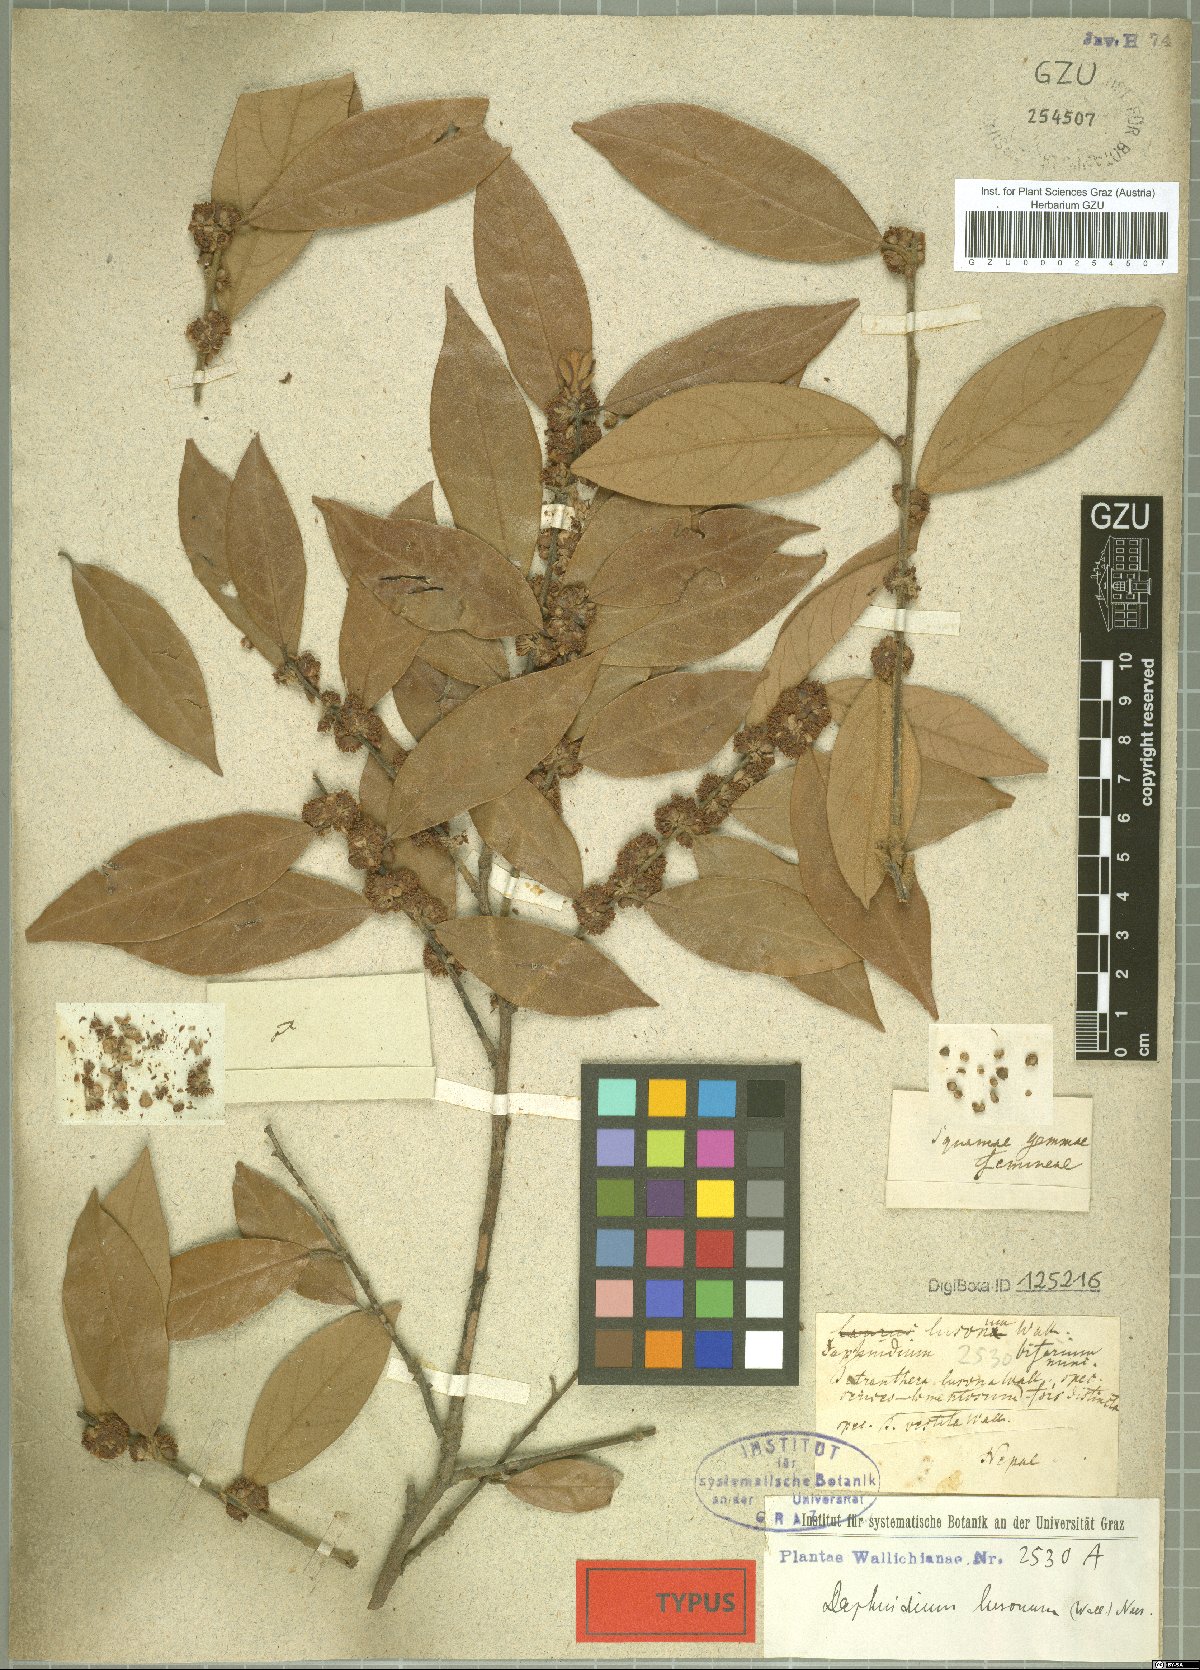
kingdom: Plantae
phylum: Tracheophyta
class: Magnoliopsida
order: Laurales
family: Lauraceae
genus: Lindera
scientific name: Lindera nacusua
